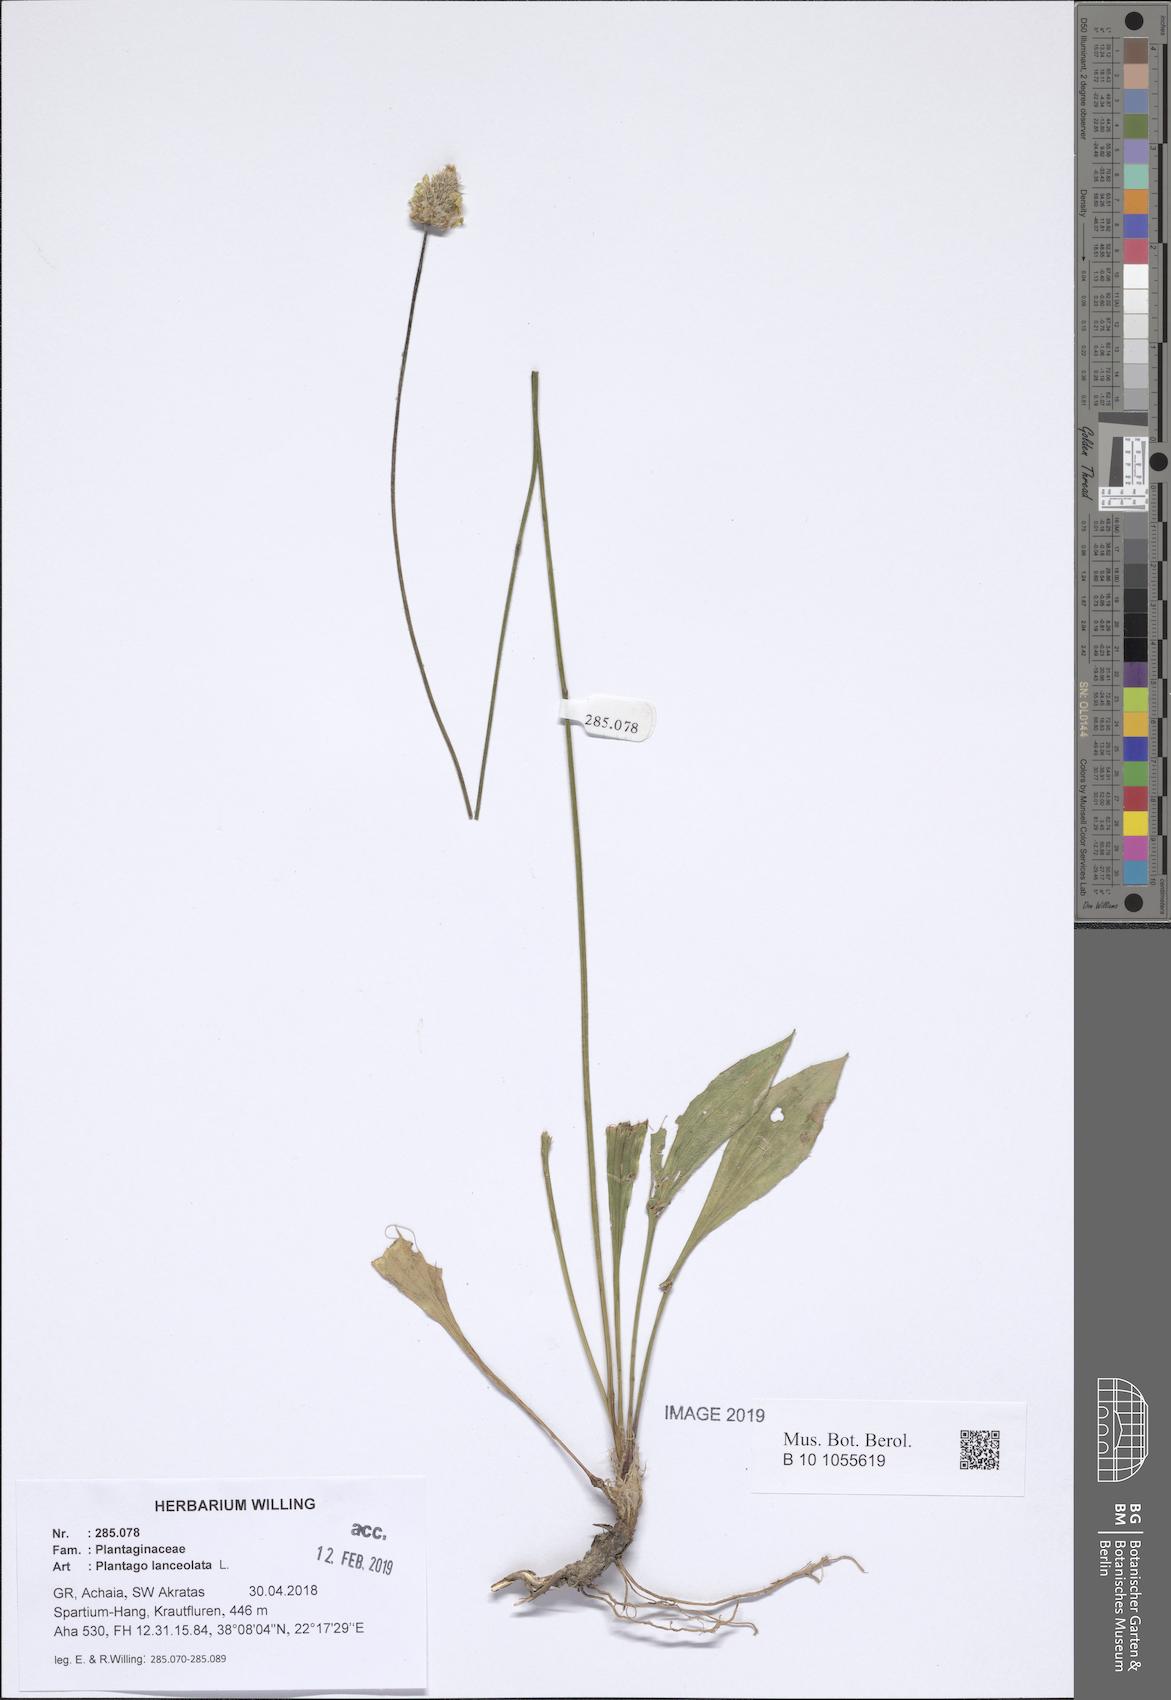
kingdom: Plantae
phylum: Tracheophyta
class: Magnoliopsida
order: Lamiales
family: Plantaginaceae
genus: Plantago
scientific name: Plantago lanceolata
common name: Ribwort plantain
